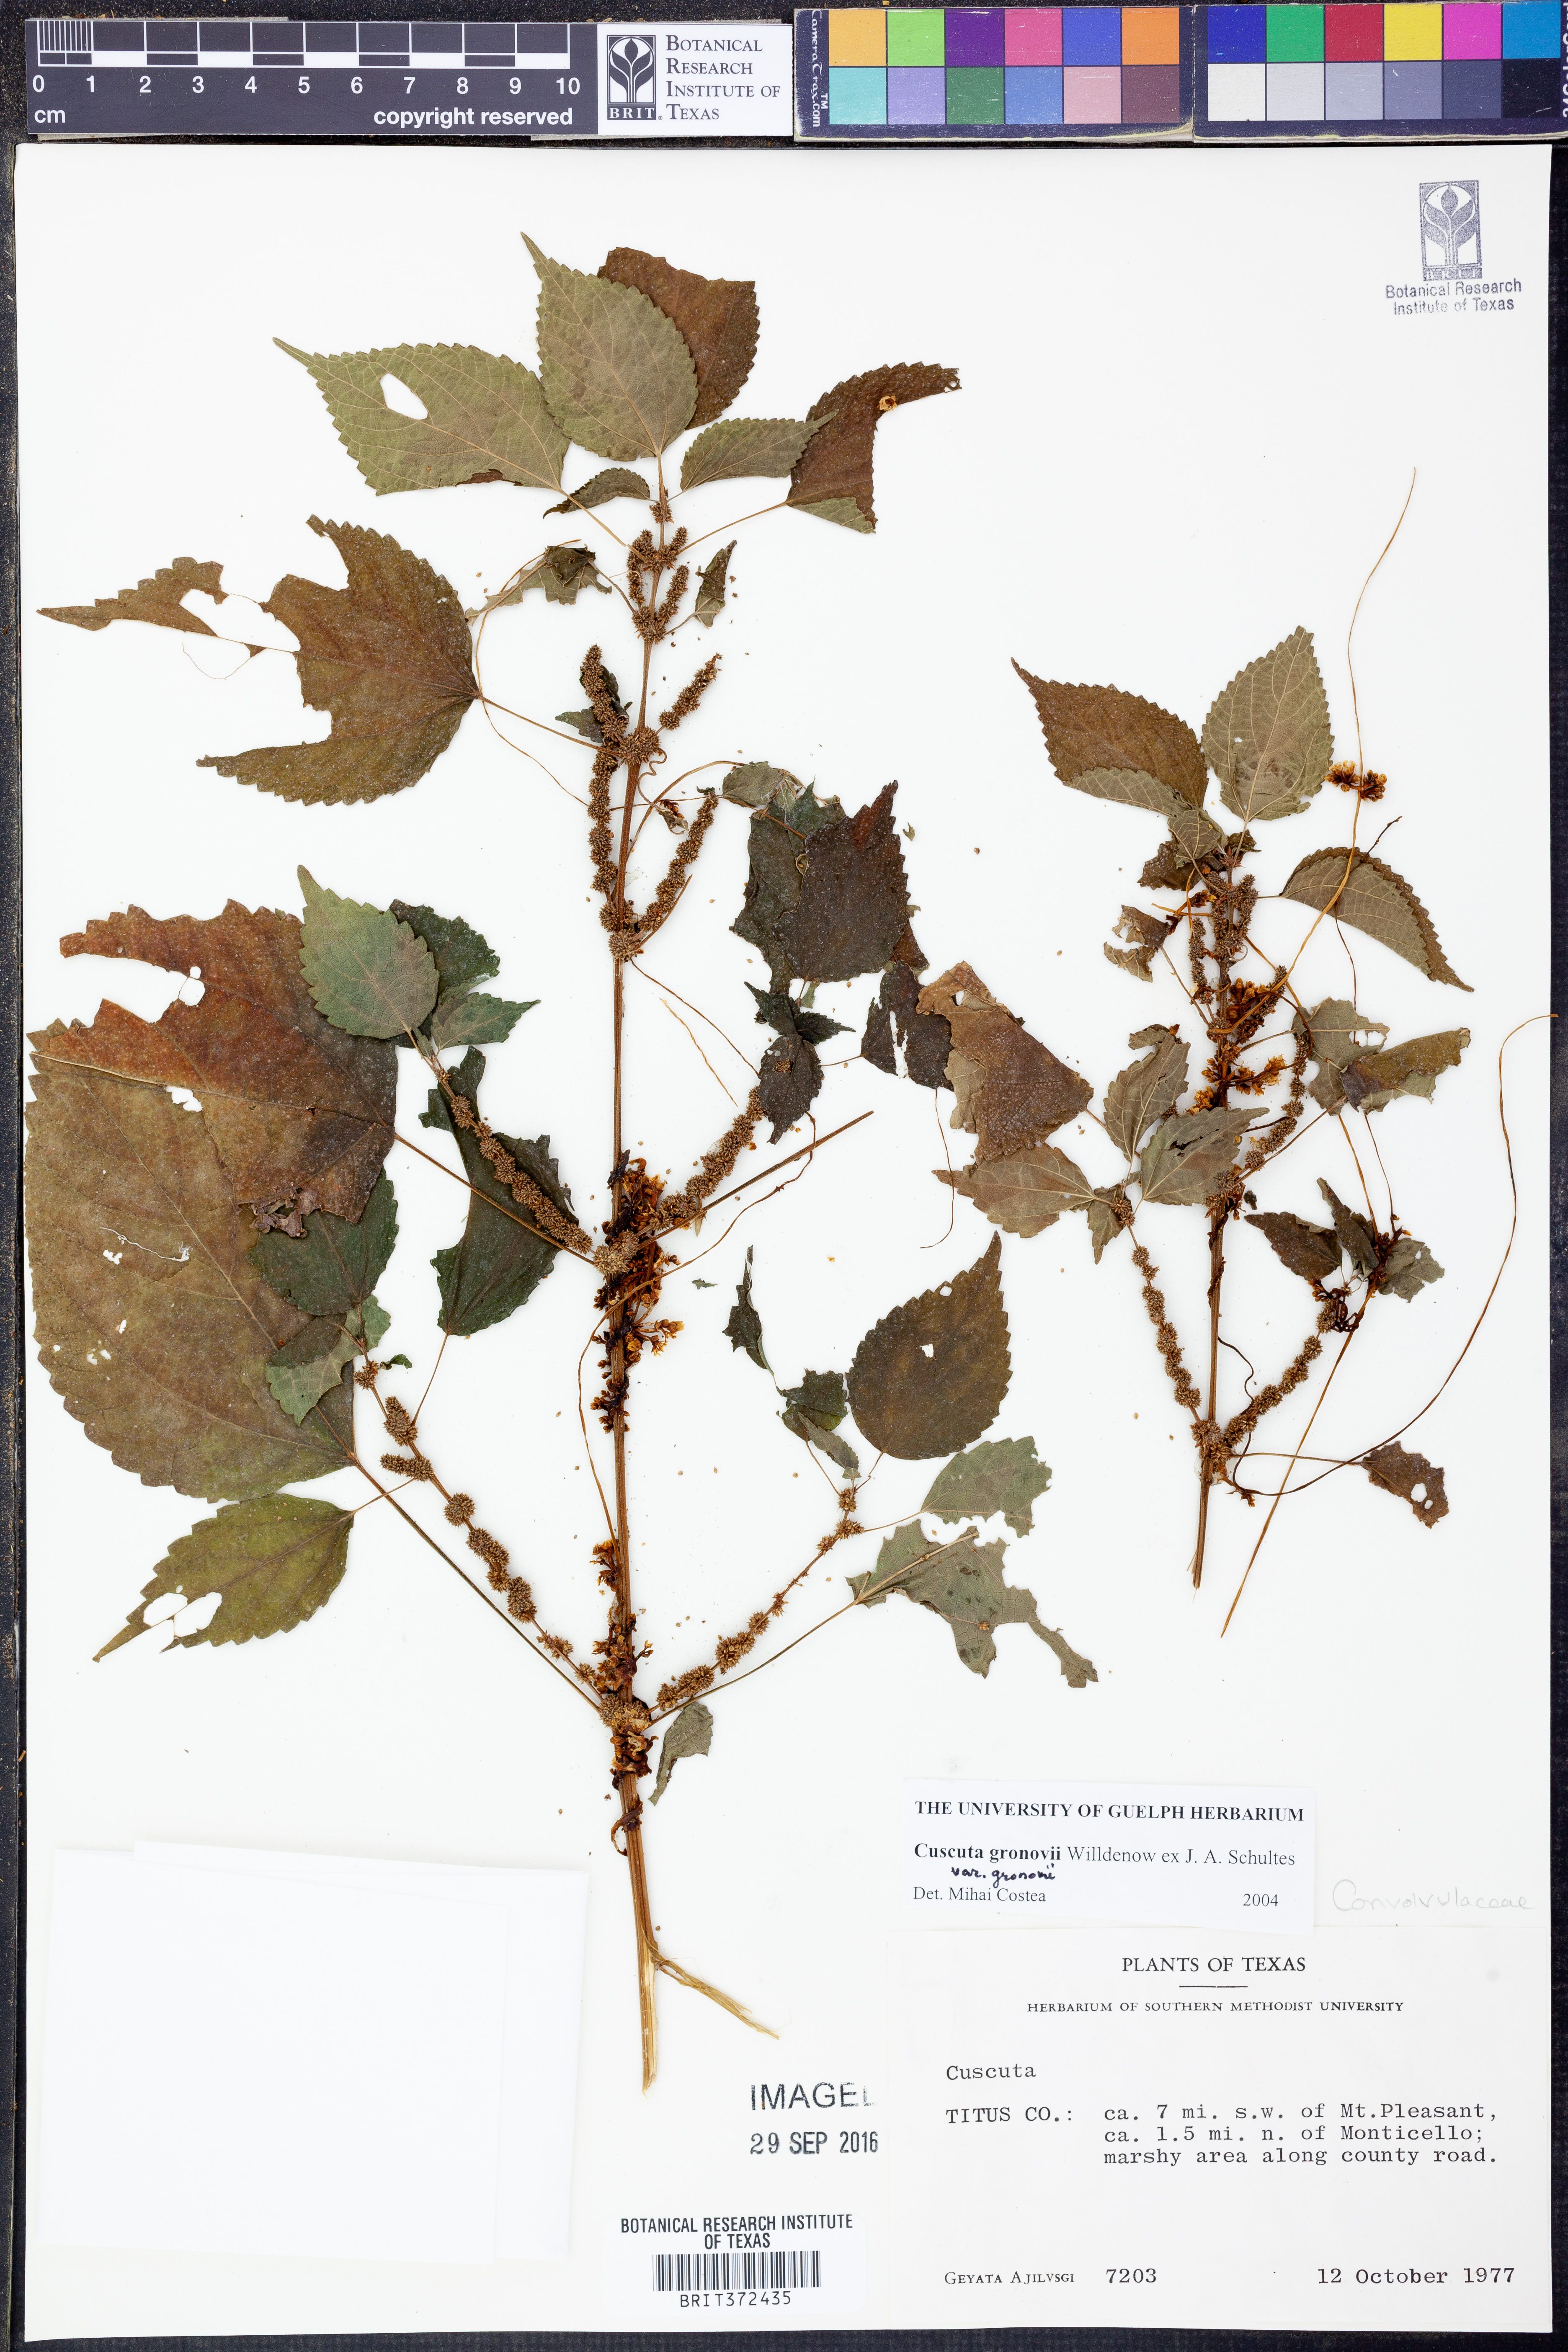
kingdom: Plantae
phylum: Tracheophyta
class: Magnoliopsida
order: Solanales
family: Convolvulaceae
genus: Cuscuta
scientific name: Cuscuta gronovii
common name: Common dodder
